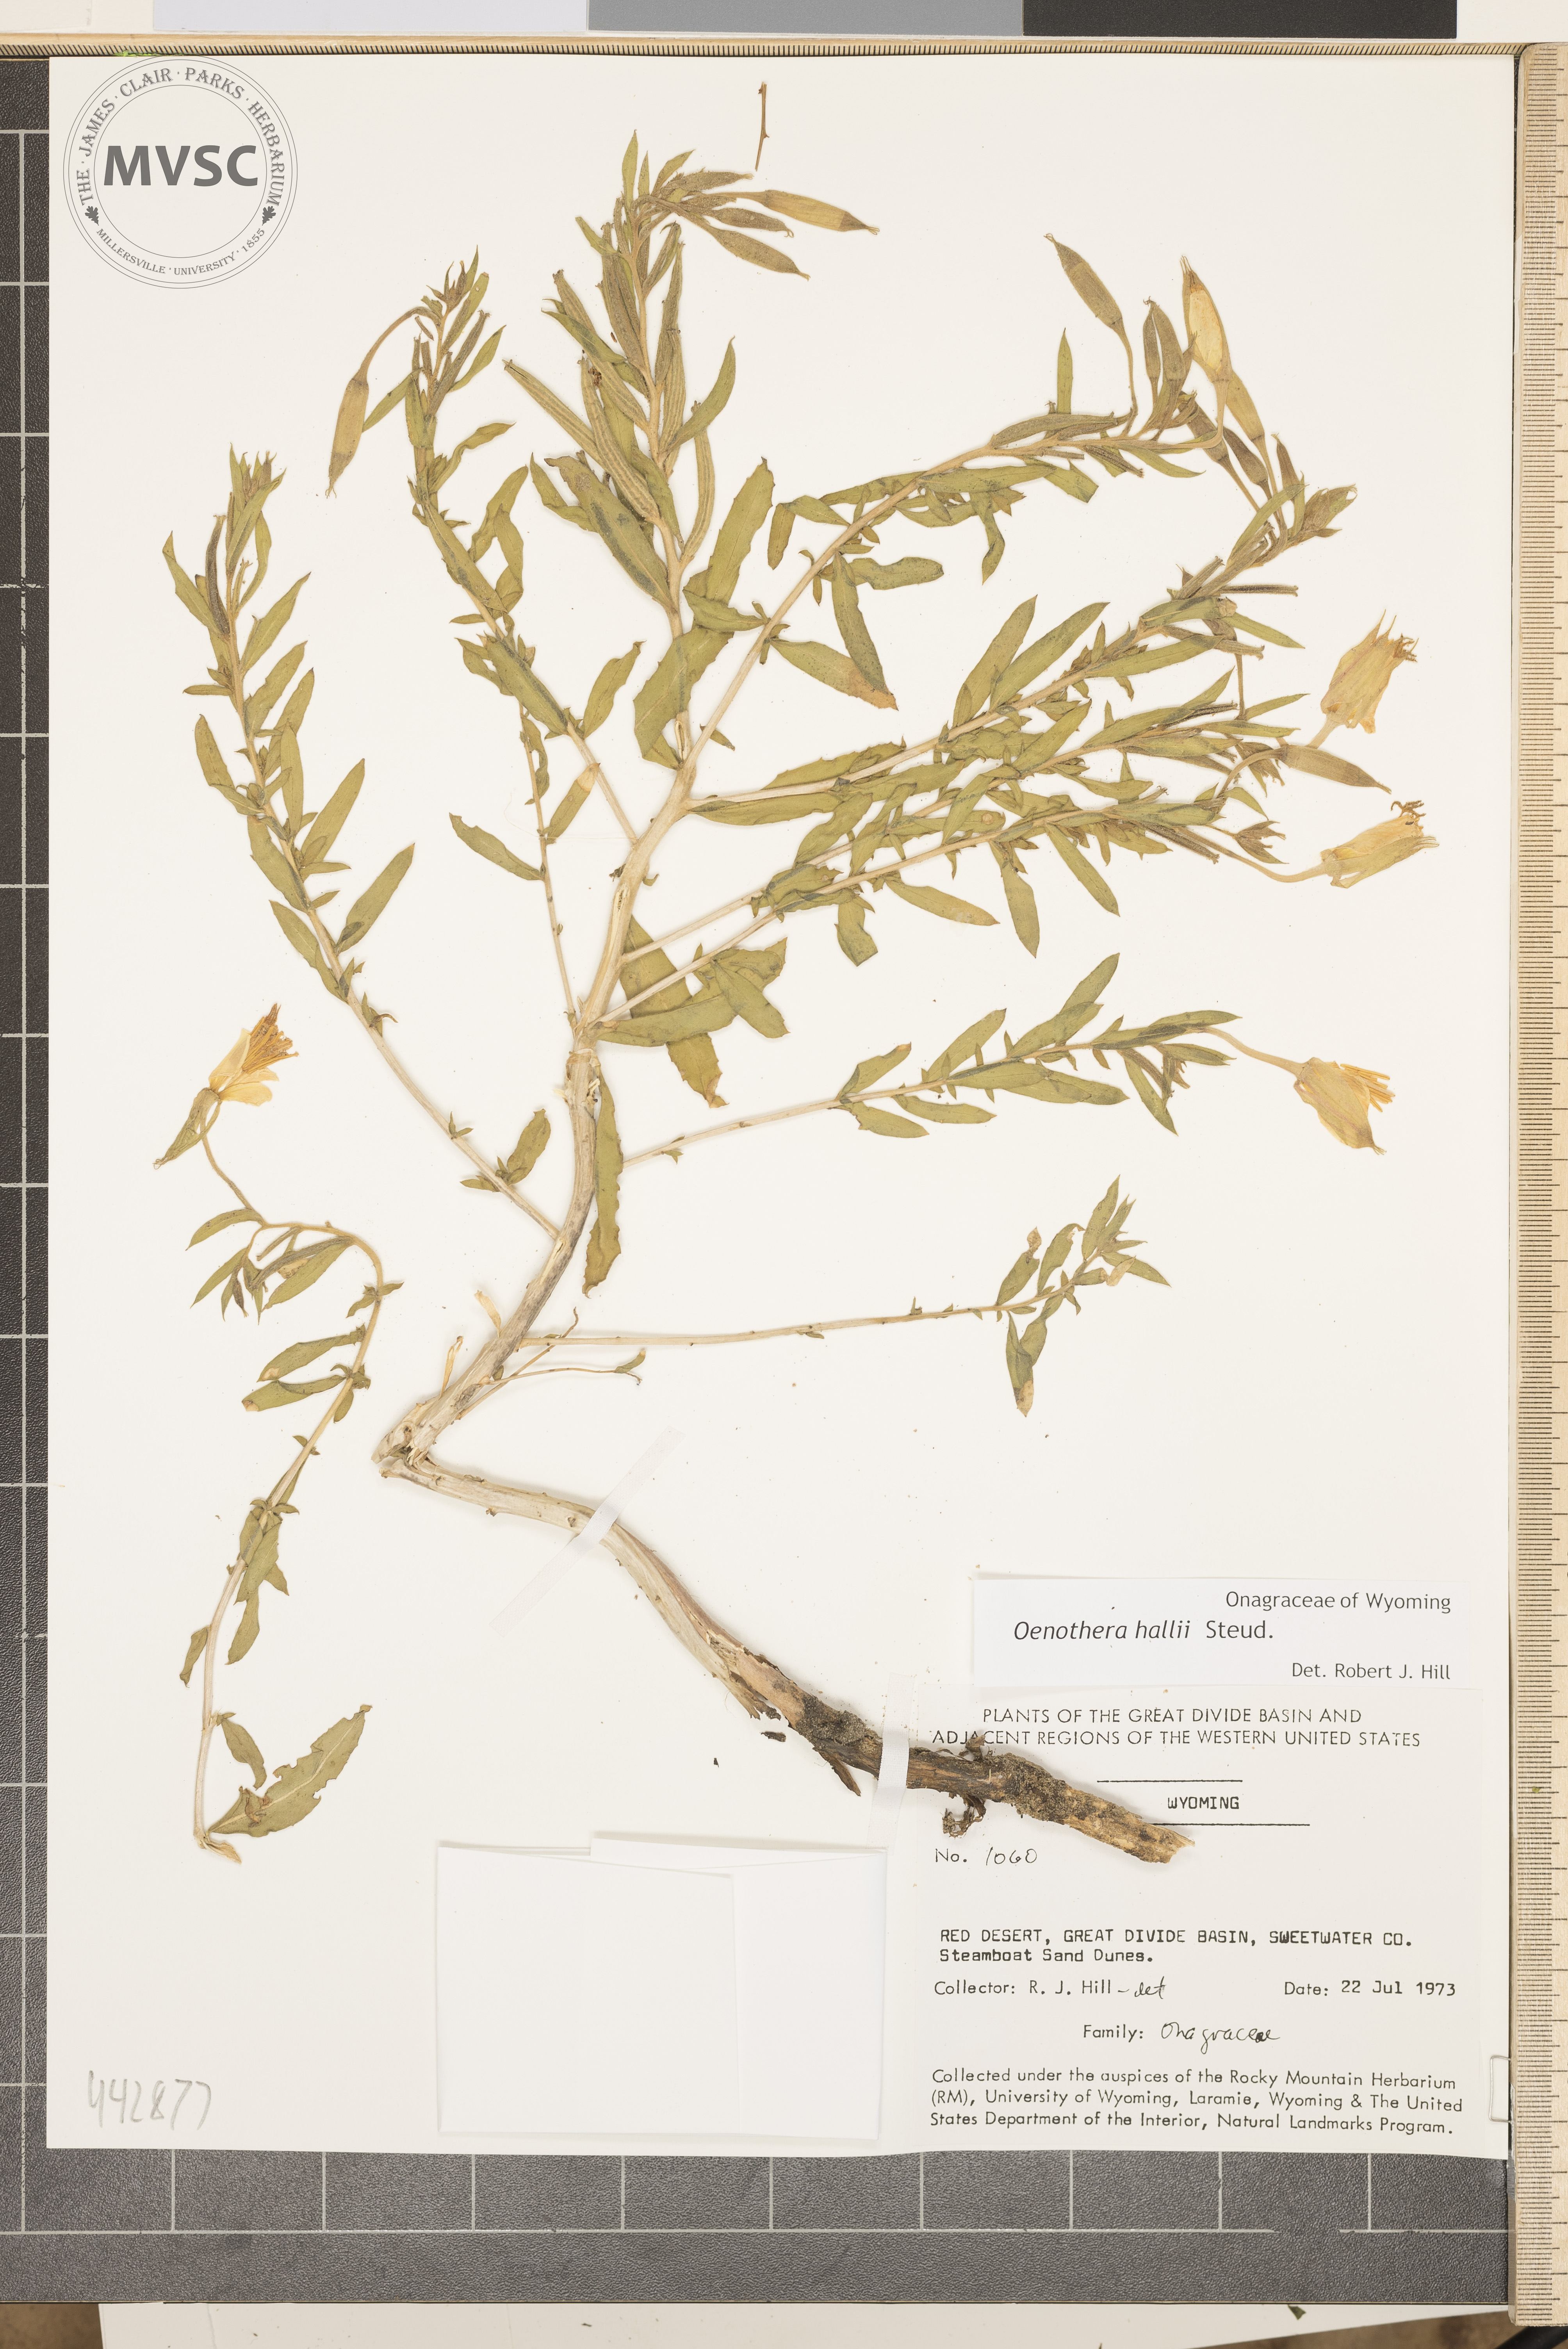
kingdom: Plantae
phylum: Tracheophyta
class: Magnoliopsida
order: Myrtales
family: Onagraceae
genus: Camissoniopsis
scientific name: Camissoniopsis pallida
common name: Paleyellow suncup
